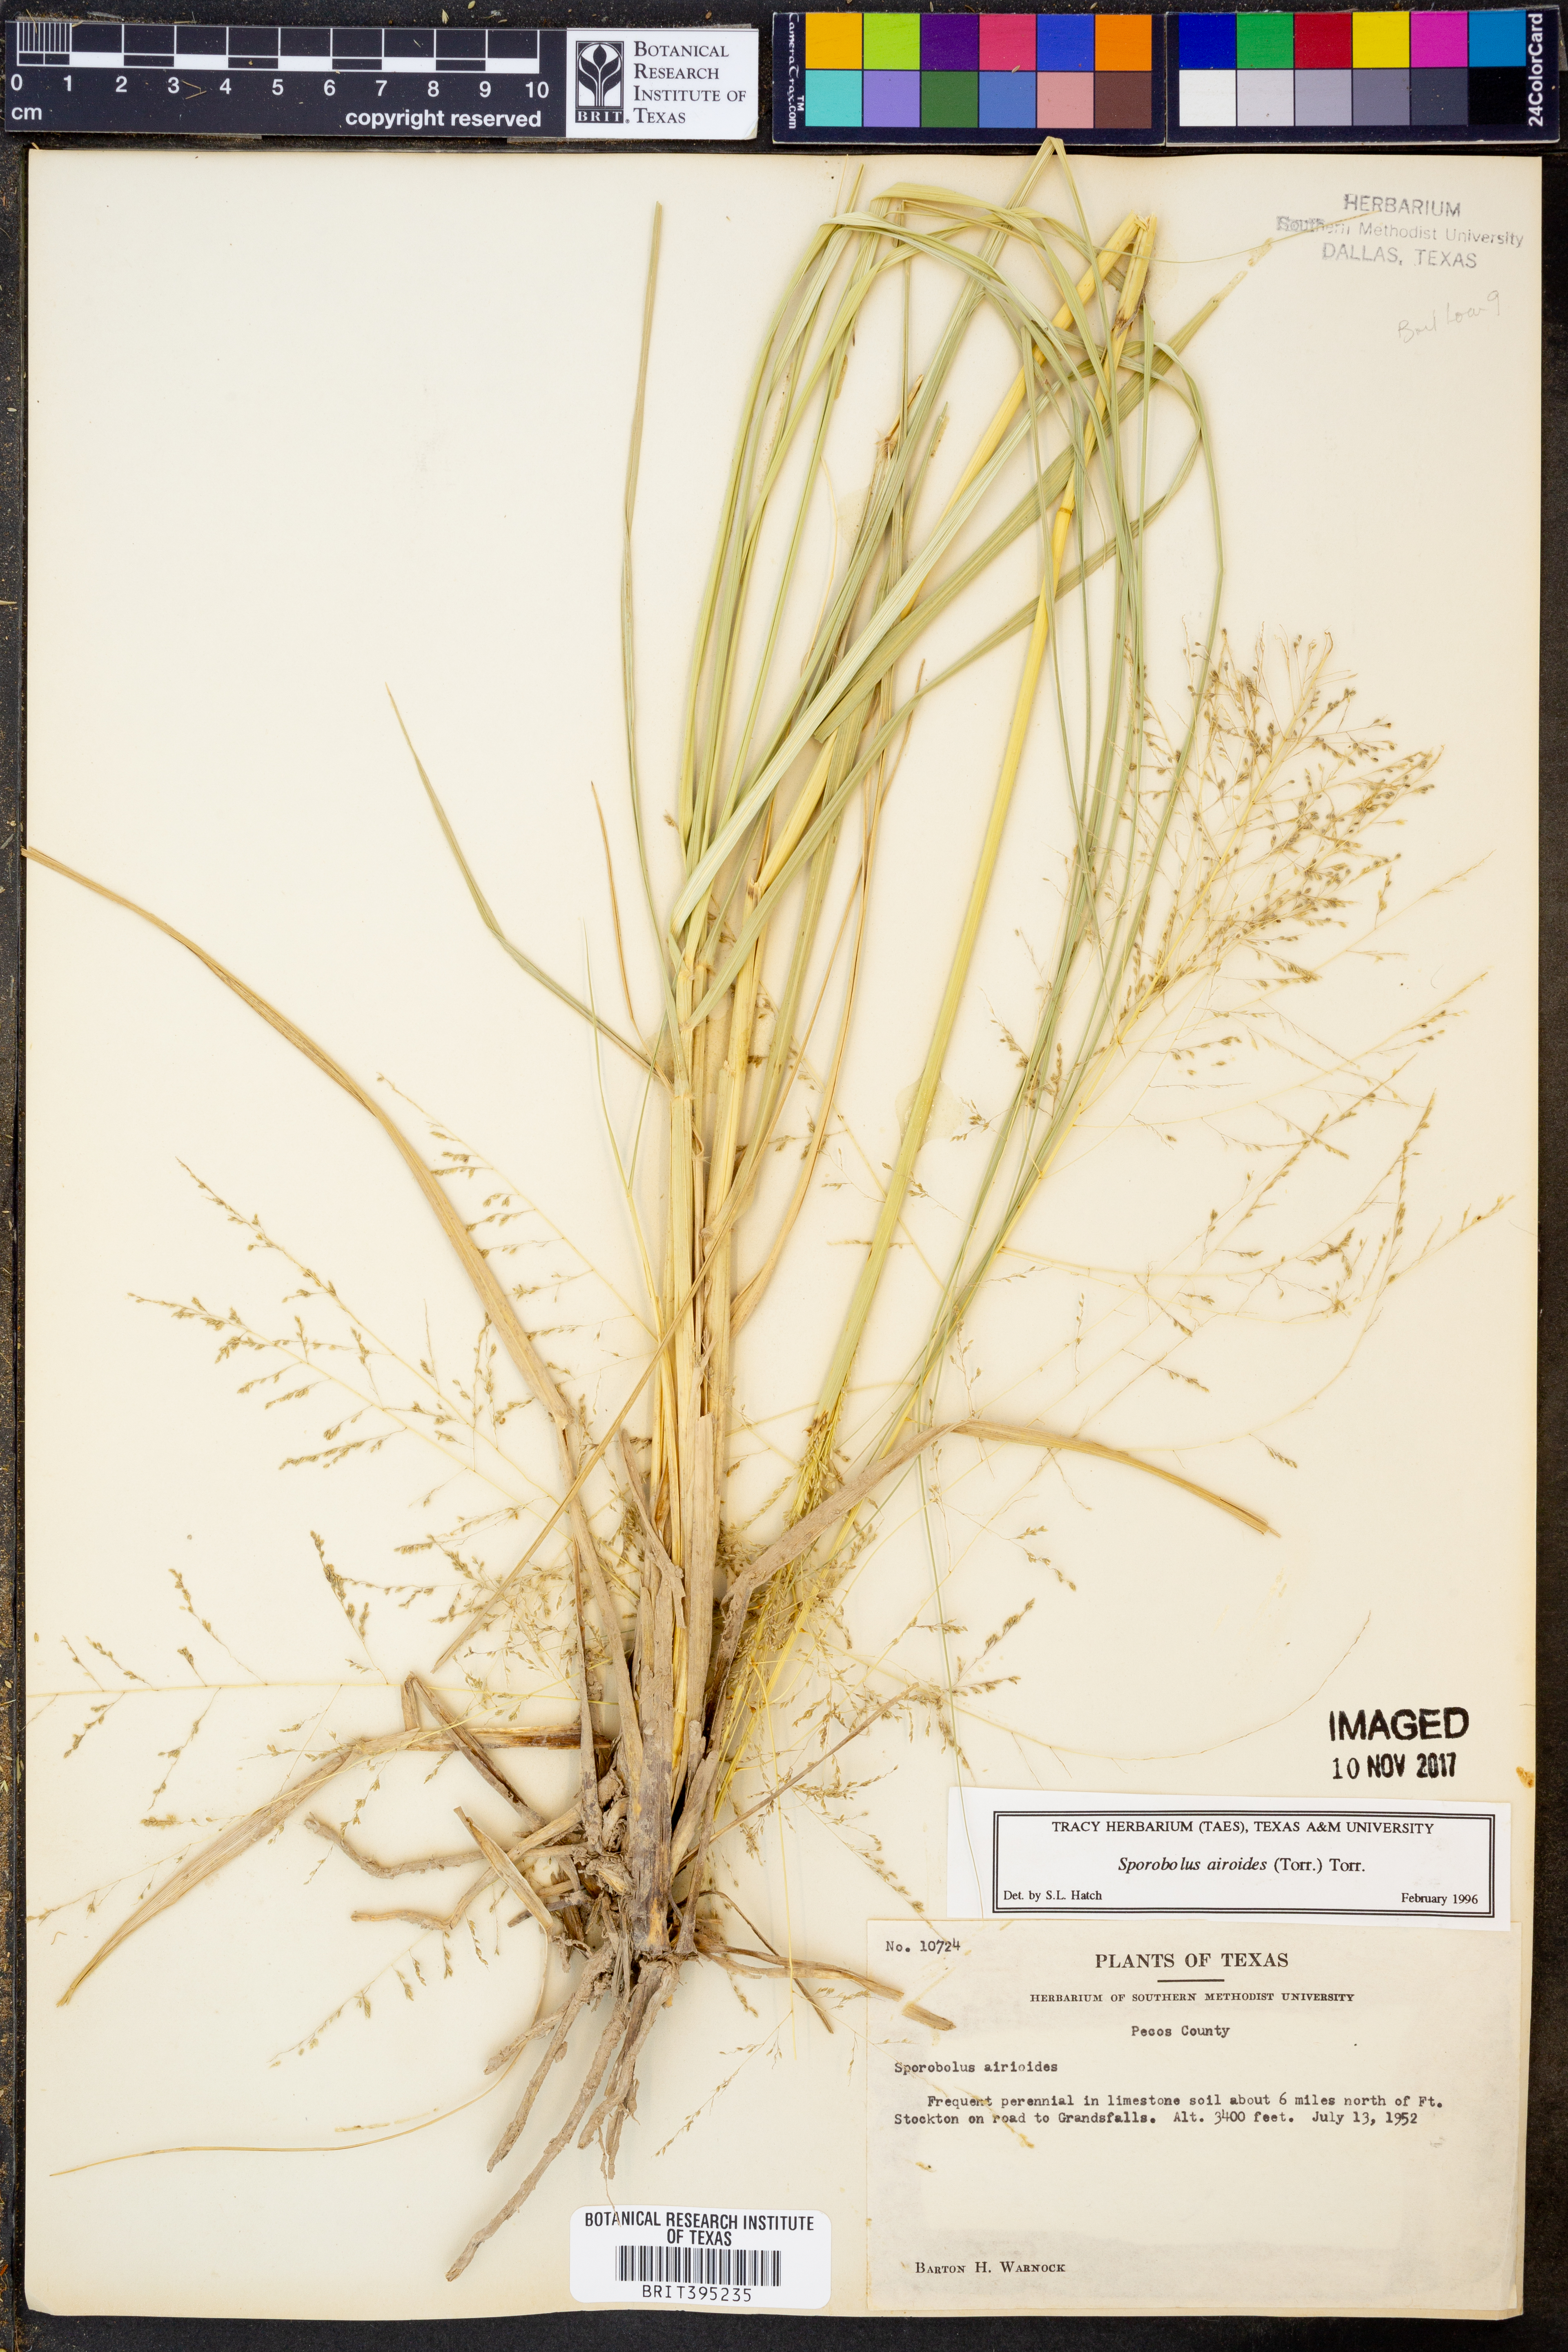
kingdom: Plantae
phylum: Tracheophyta
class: Liliopsida
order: Poales
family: Poaceae
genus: Sporobolus
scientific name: Sporobolus airoides
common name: Alkali sacaton
